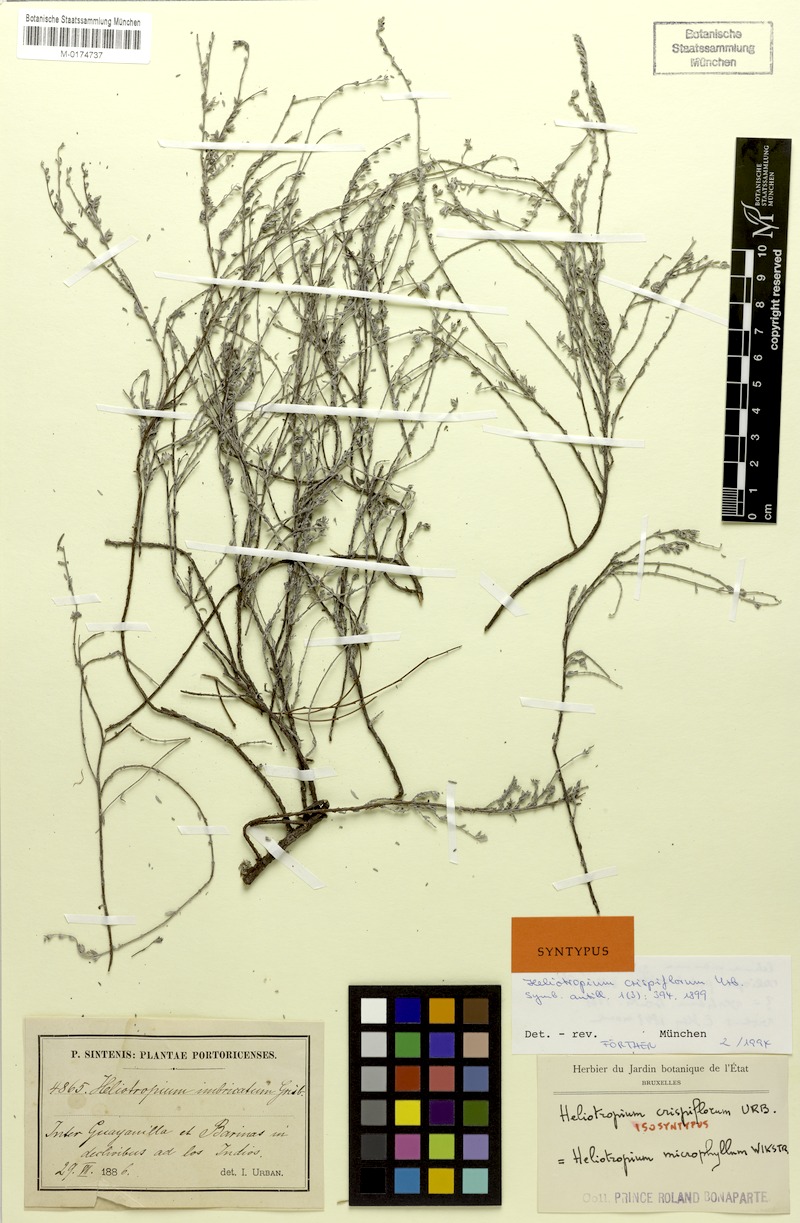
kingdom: Plantae
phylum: Tracheophyta
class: Magnoliopsida
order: Boraginales
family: Heliotropiaceae
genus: Euploca
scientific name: Euploca microphylla
